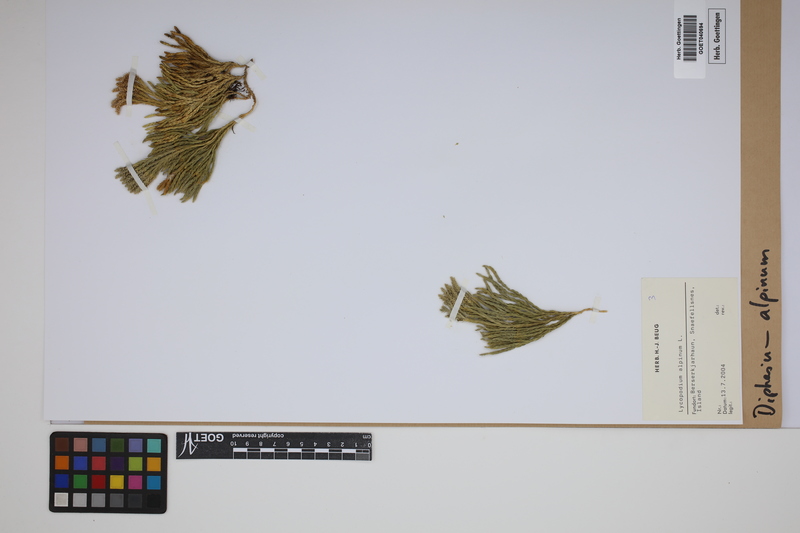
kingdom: Plantae
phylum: Tracheophyta
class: Lycopodiopsida
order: Lycopodiales
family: Lycopodiaceae
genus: Diphasiastrum
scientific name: Diphasiastrum alpinum
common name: Alpine clubmoss
